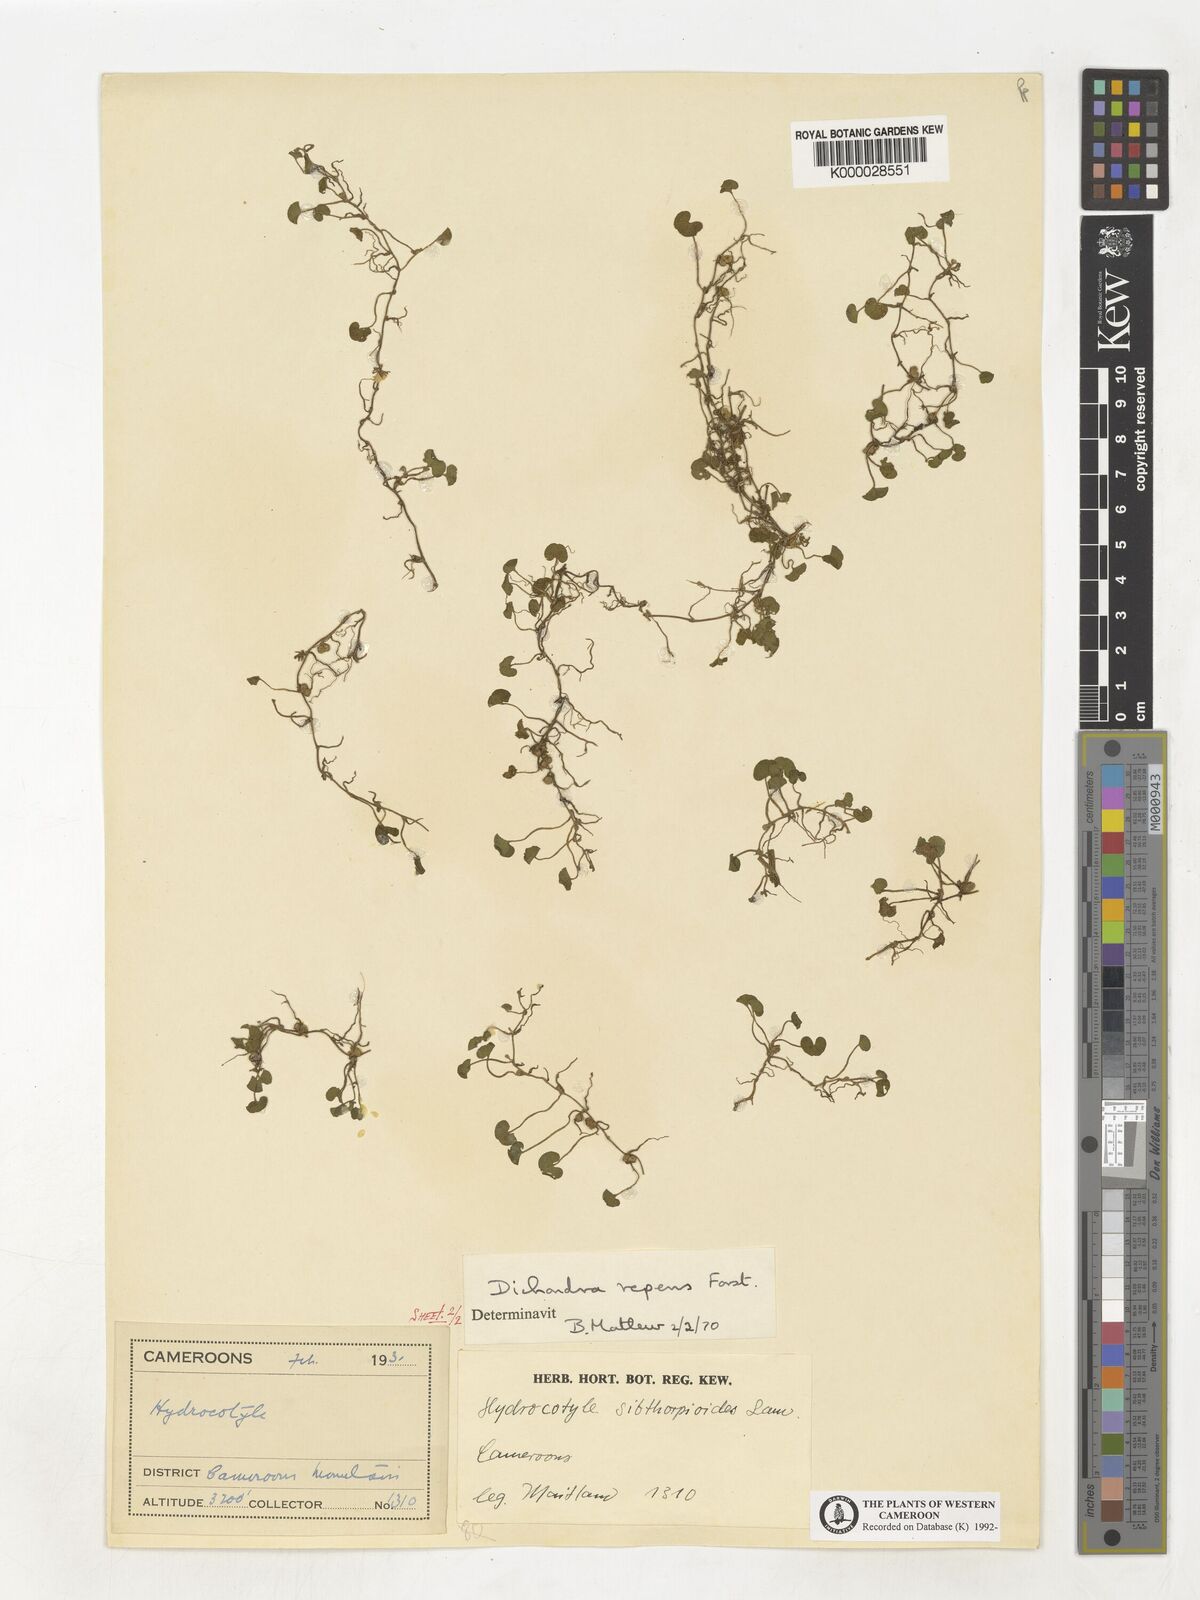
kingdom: Plantae
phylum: Tracheophyta
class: Magnoliopsida
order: Solanales
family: Convolvulaceae
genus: Dichondra
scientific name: Dichondra repens
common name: Kidneyweed
